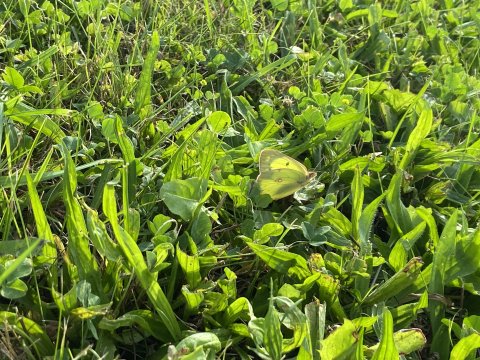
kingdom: Animalia
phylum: Arthropoda
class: Insecta
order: Lepidoptera
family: Pieridae
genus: Colias
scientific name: Colias philodice
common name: Clouded Sulphur
